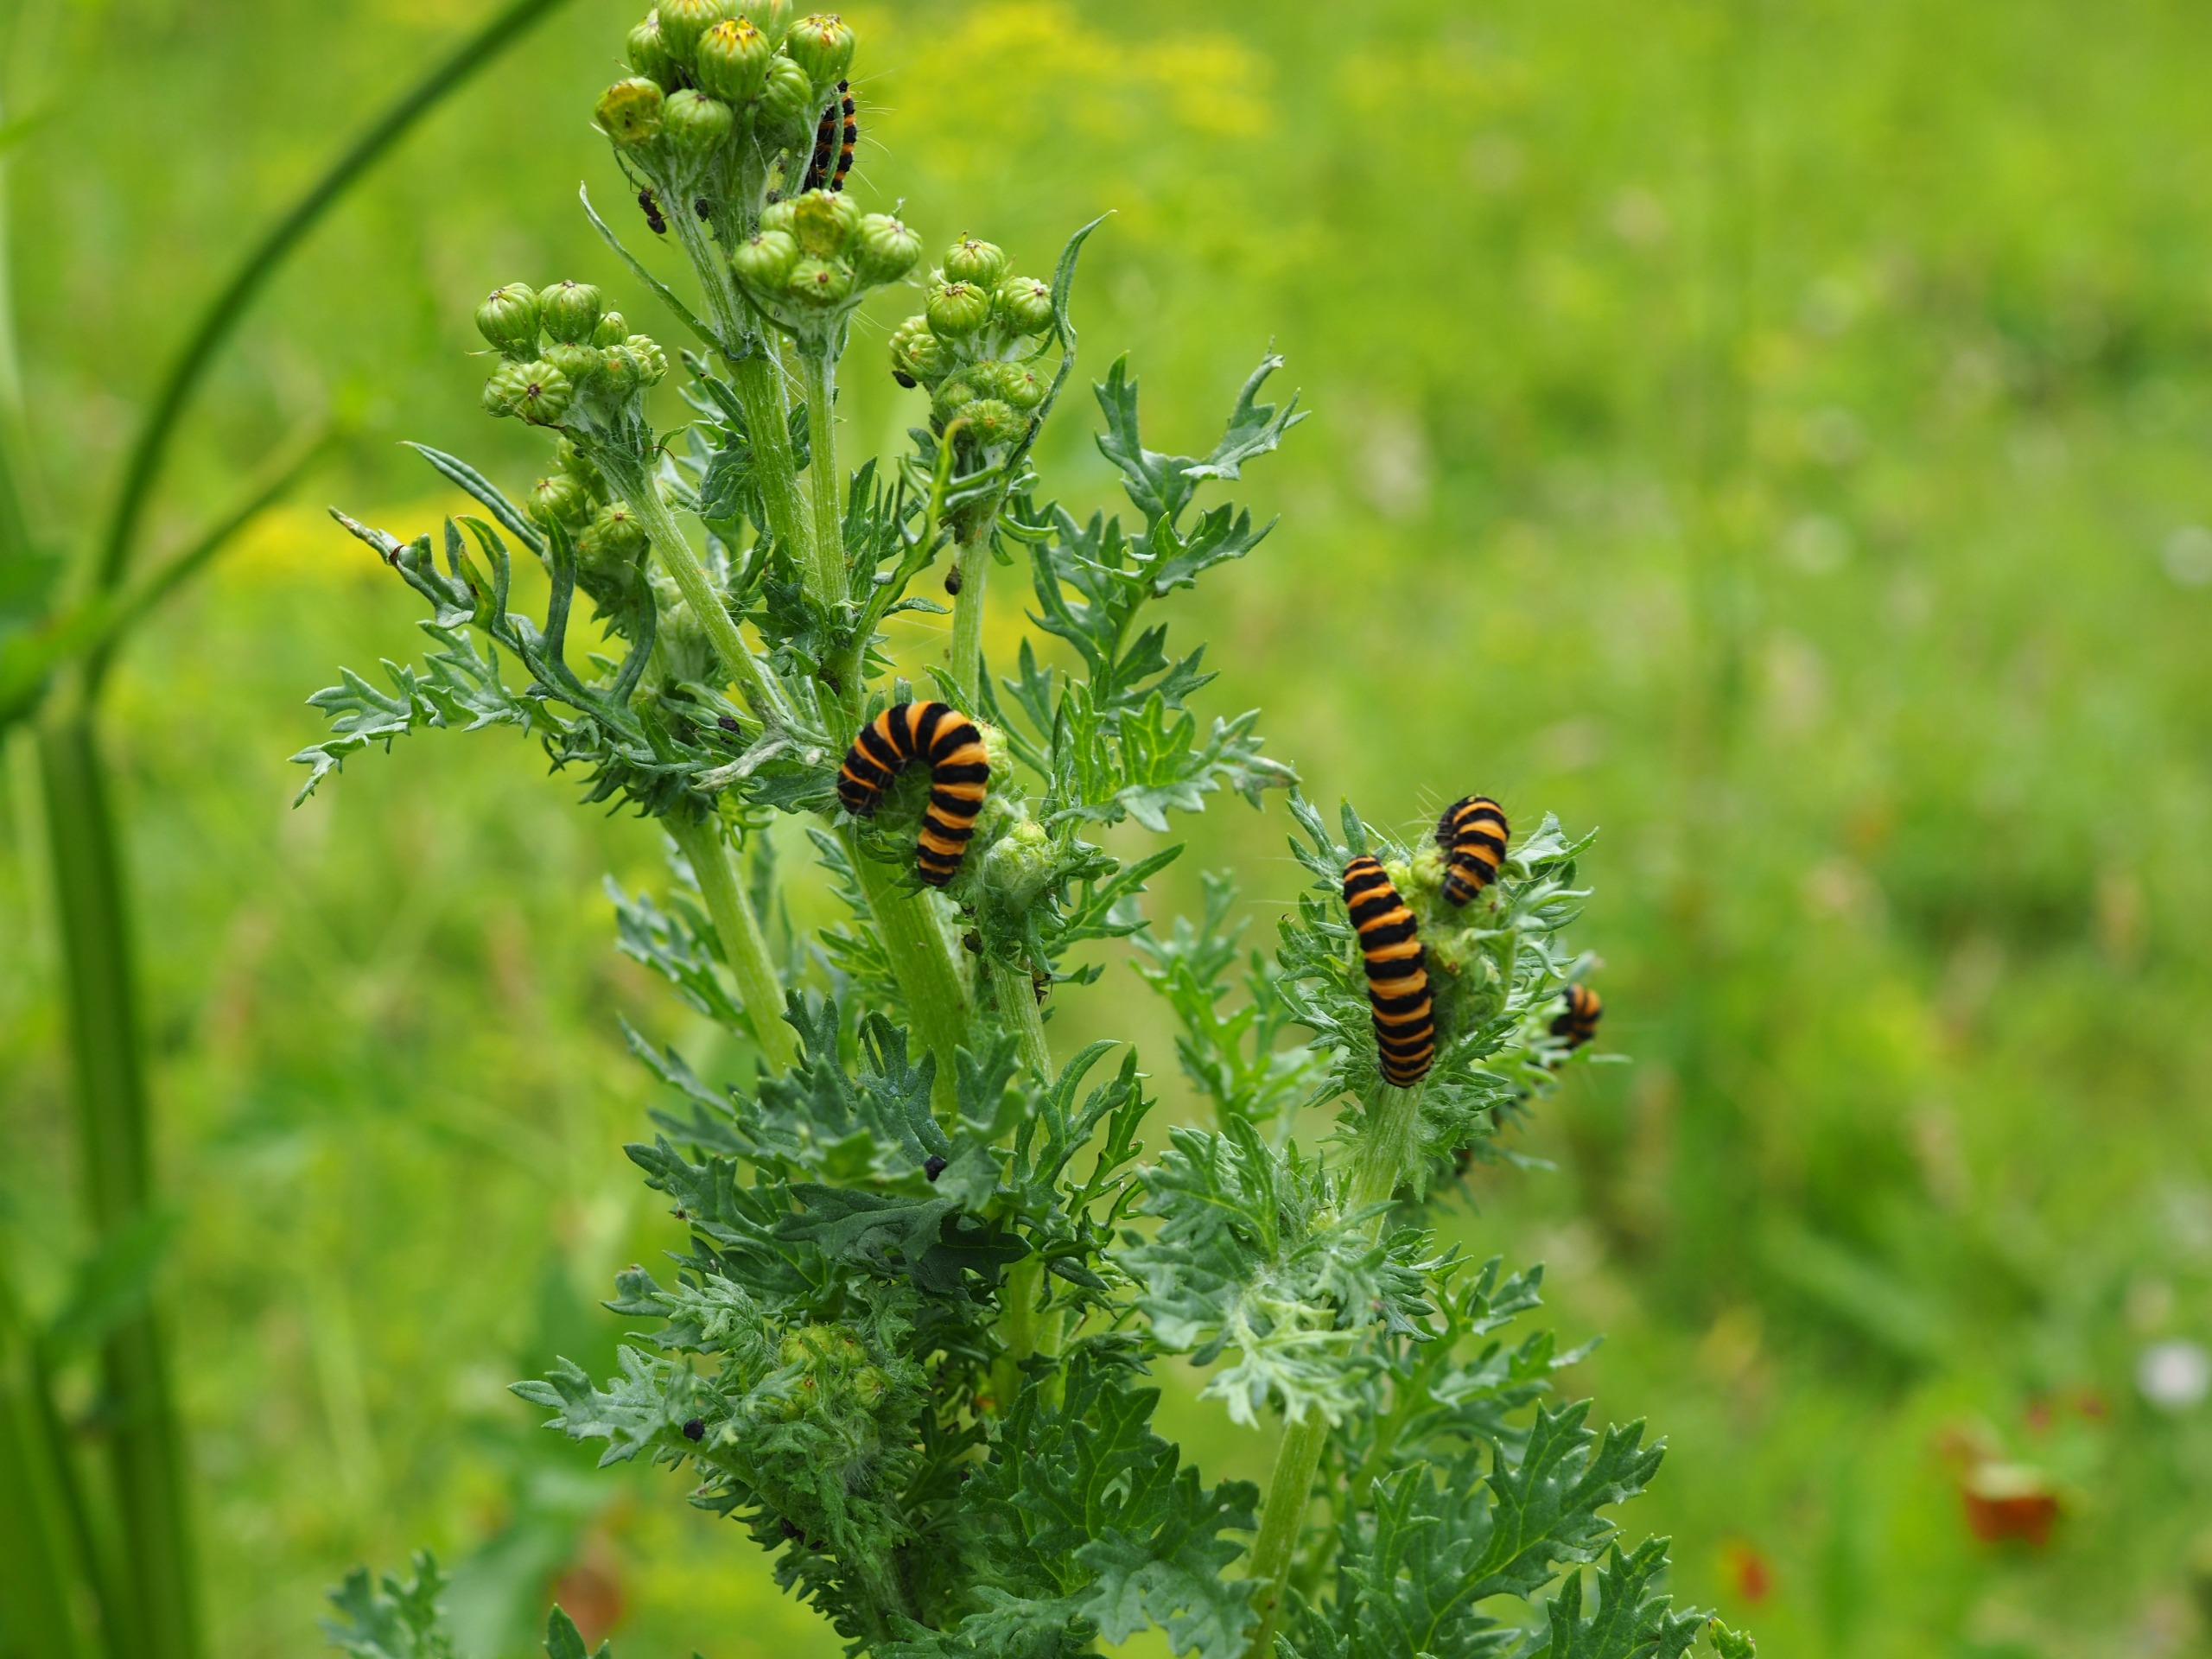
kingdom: Animalia
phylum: Arthropoda
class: Insecta
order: Lepidoptera
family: Erebidae
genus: Tyria
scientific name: Tyria jacobaeae
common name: Blodplet
